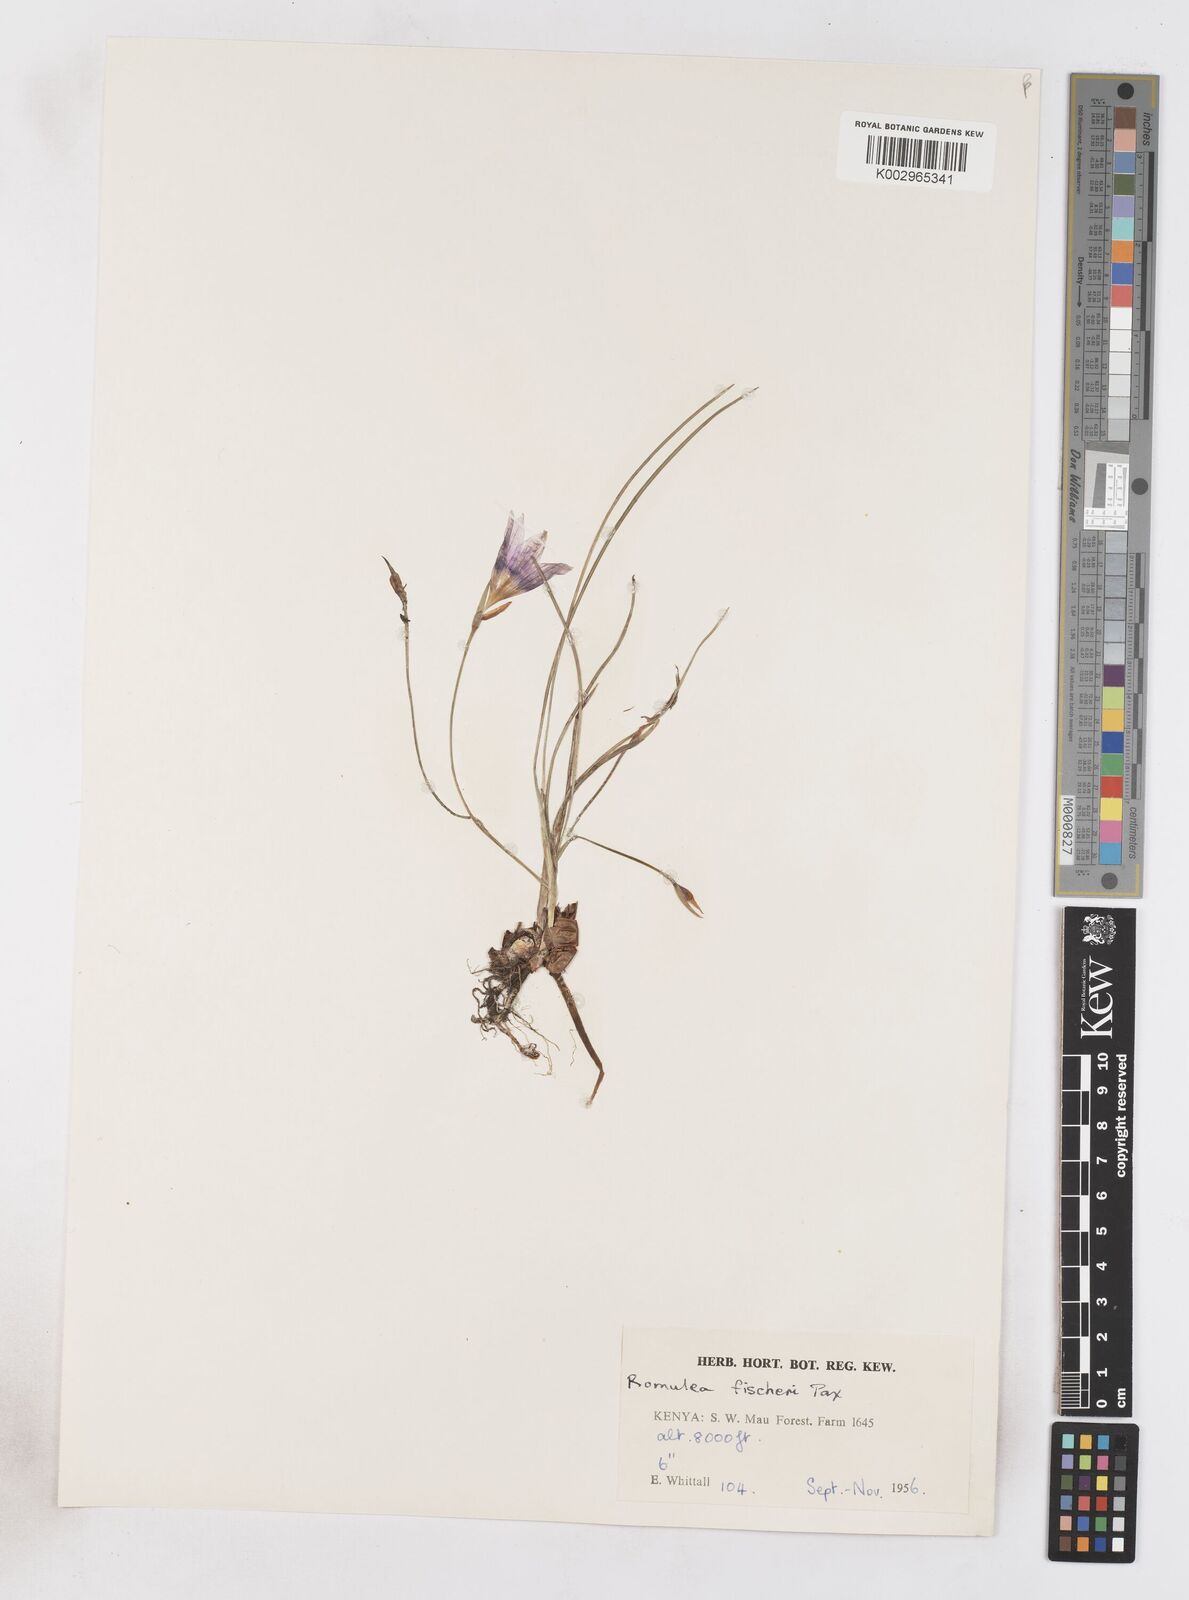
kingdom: Plantae
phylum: Tracheophyta
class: Liliopsida
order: Asparagales
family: Iridaceae
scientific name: Iridaceae
